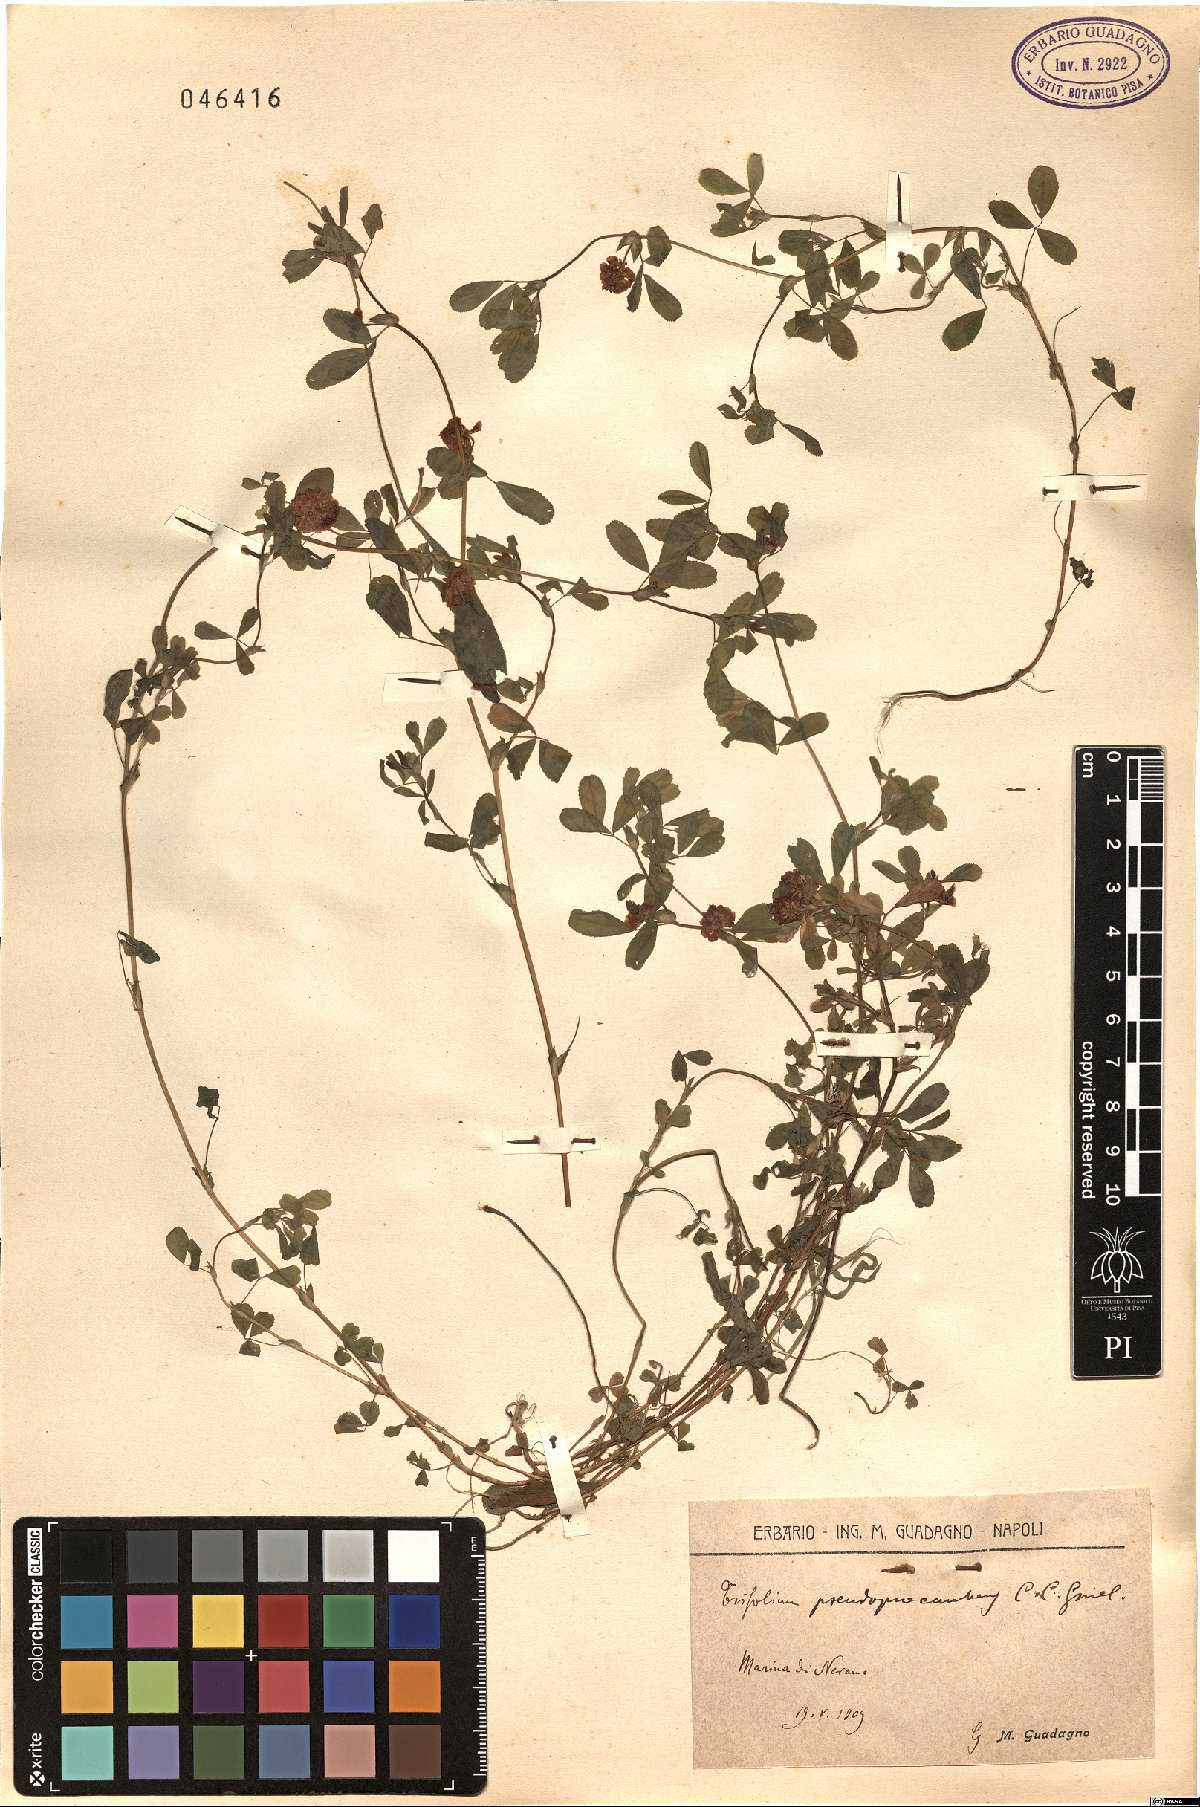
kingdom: Plantae
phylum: Tracheophyta
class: Magnoliopsida
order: Fabales
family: Fabaceae
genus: Trifolium
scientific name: Trifolium campestre
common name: Field clover
